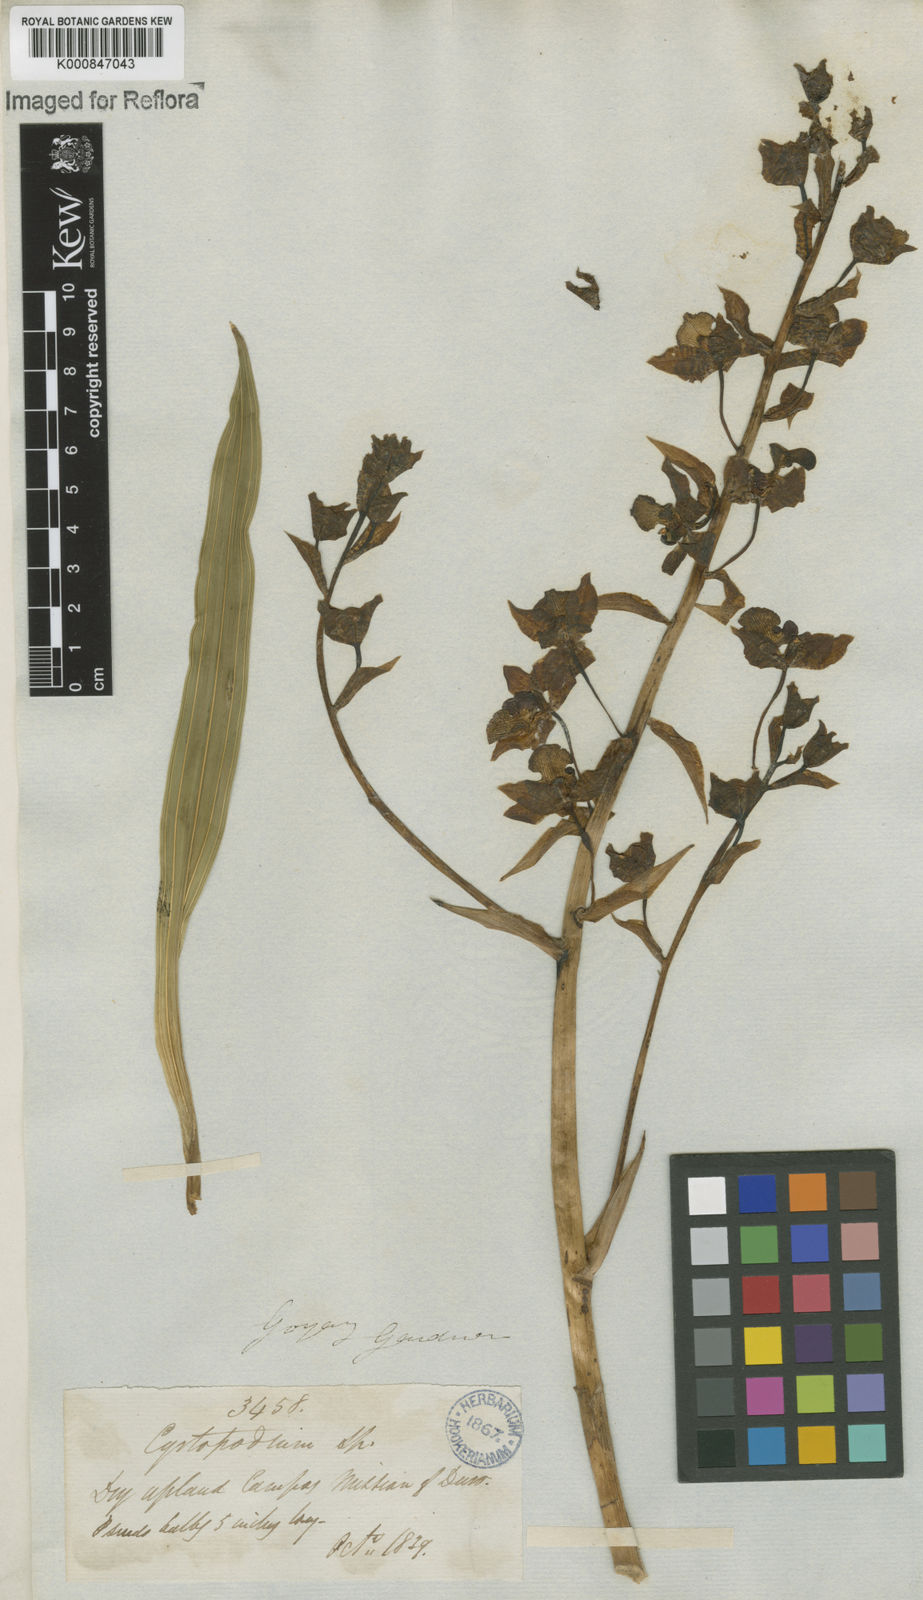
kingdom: Plantae
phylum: Tracheophyta
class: Liliopsida
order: Asparagales
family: Orchidaceae
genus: Cyrtopodium
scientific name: Cyrtopodium punctatum
